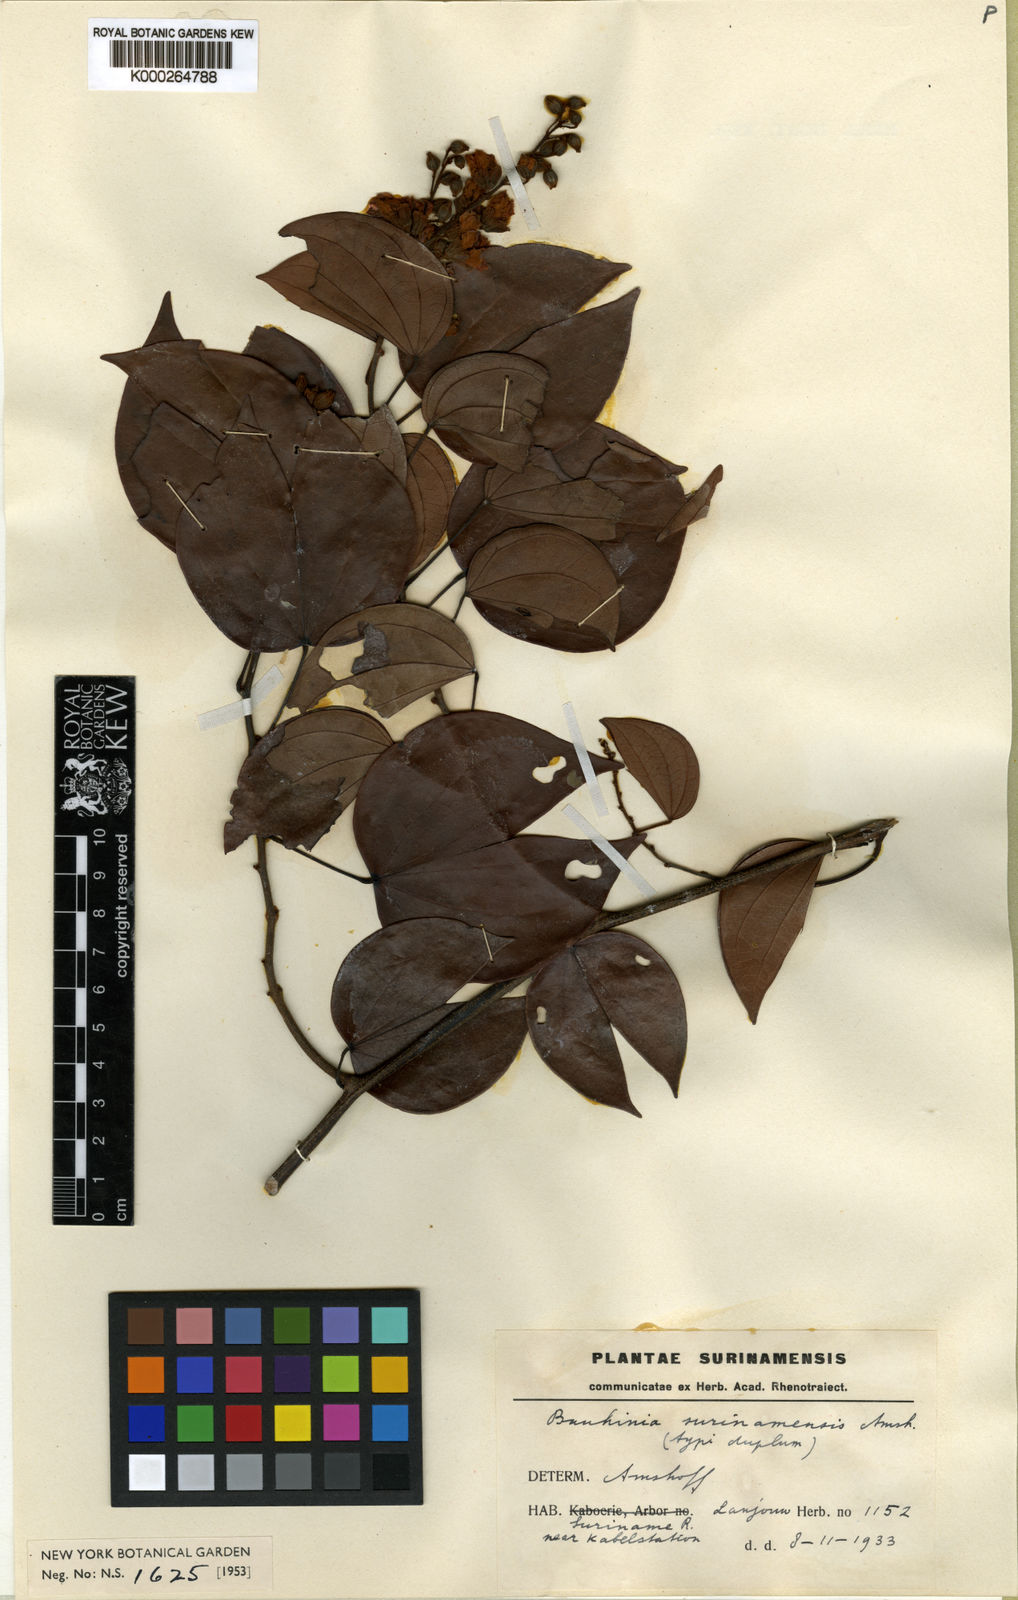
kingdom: Plantae
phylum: Tracheophyta
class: Magnoliopsida
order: Fabales
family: Fabaceae
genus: Schnella
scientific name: Schnella surinamensis
